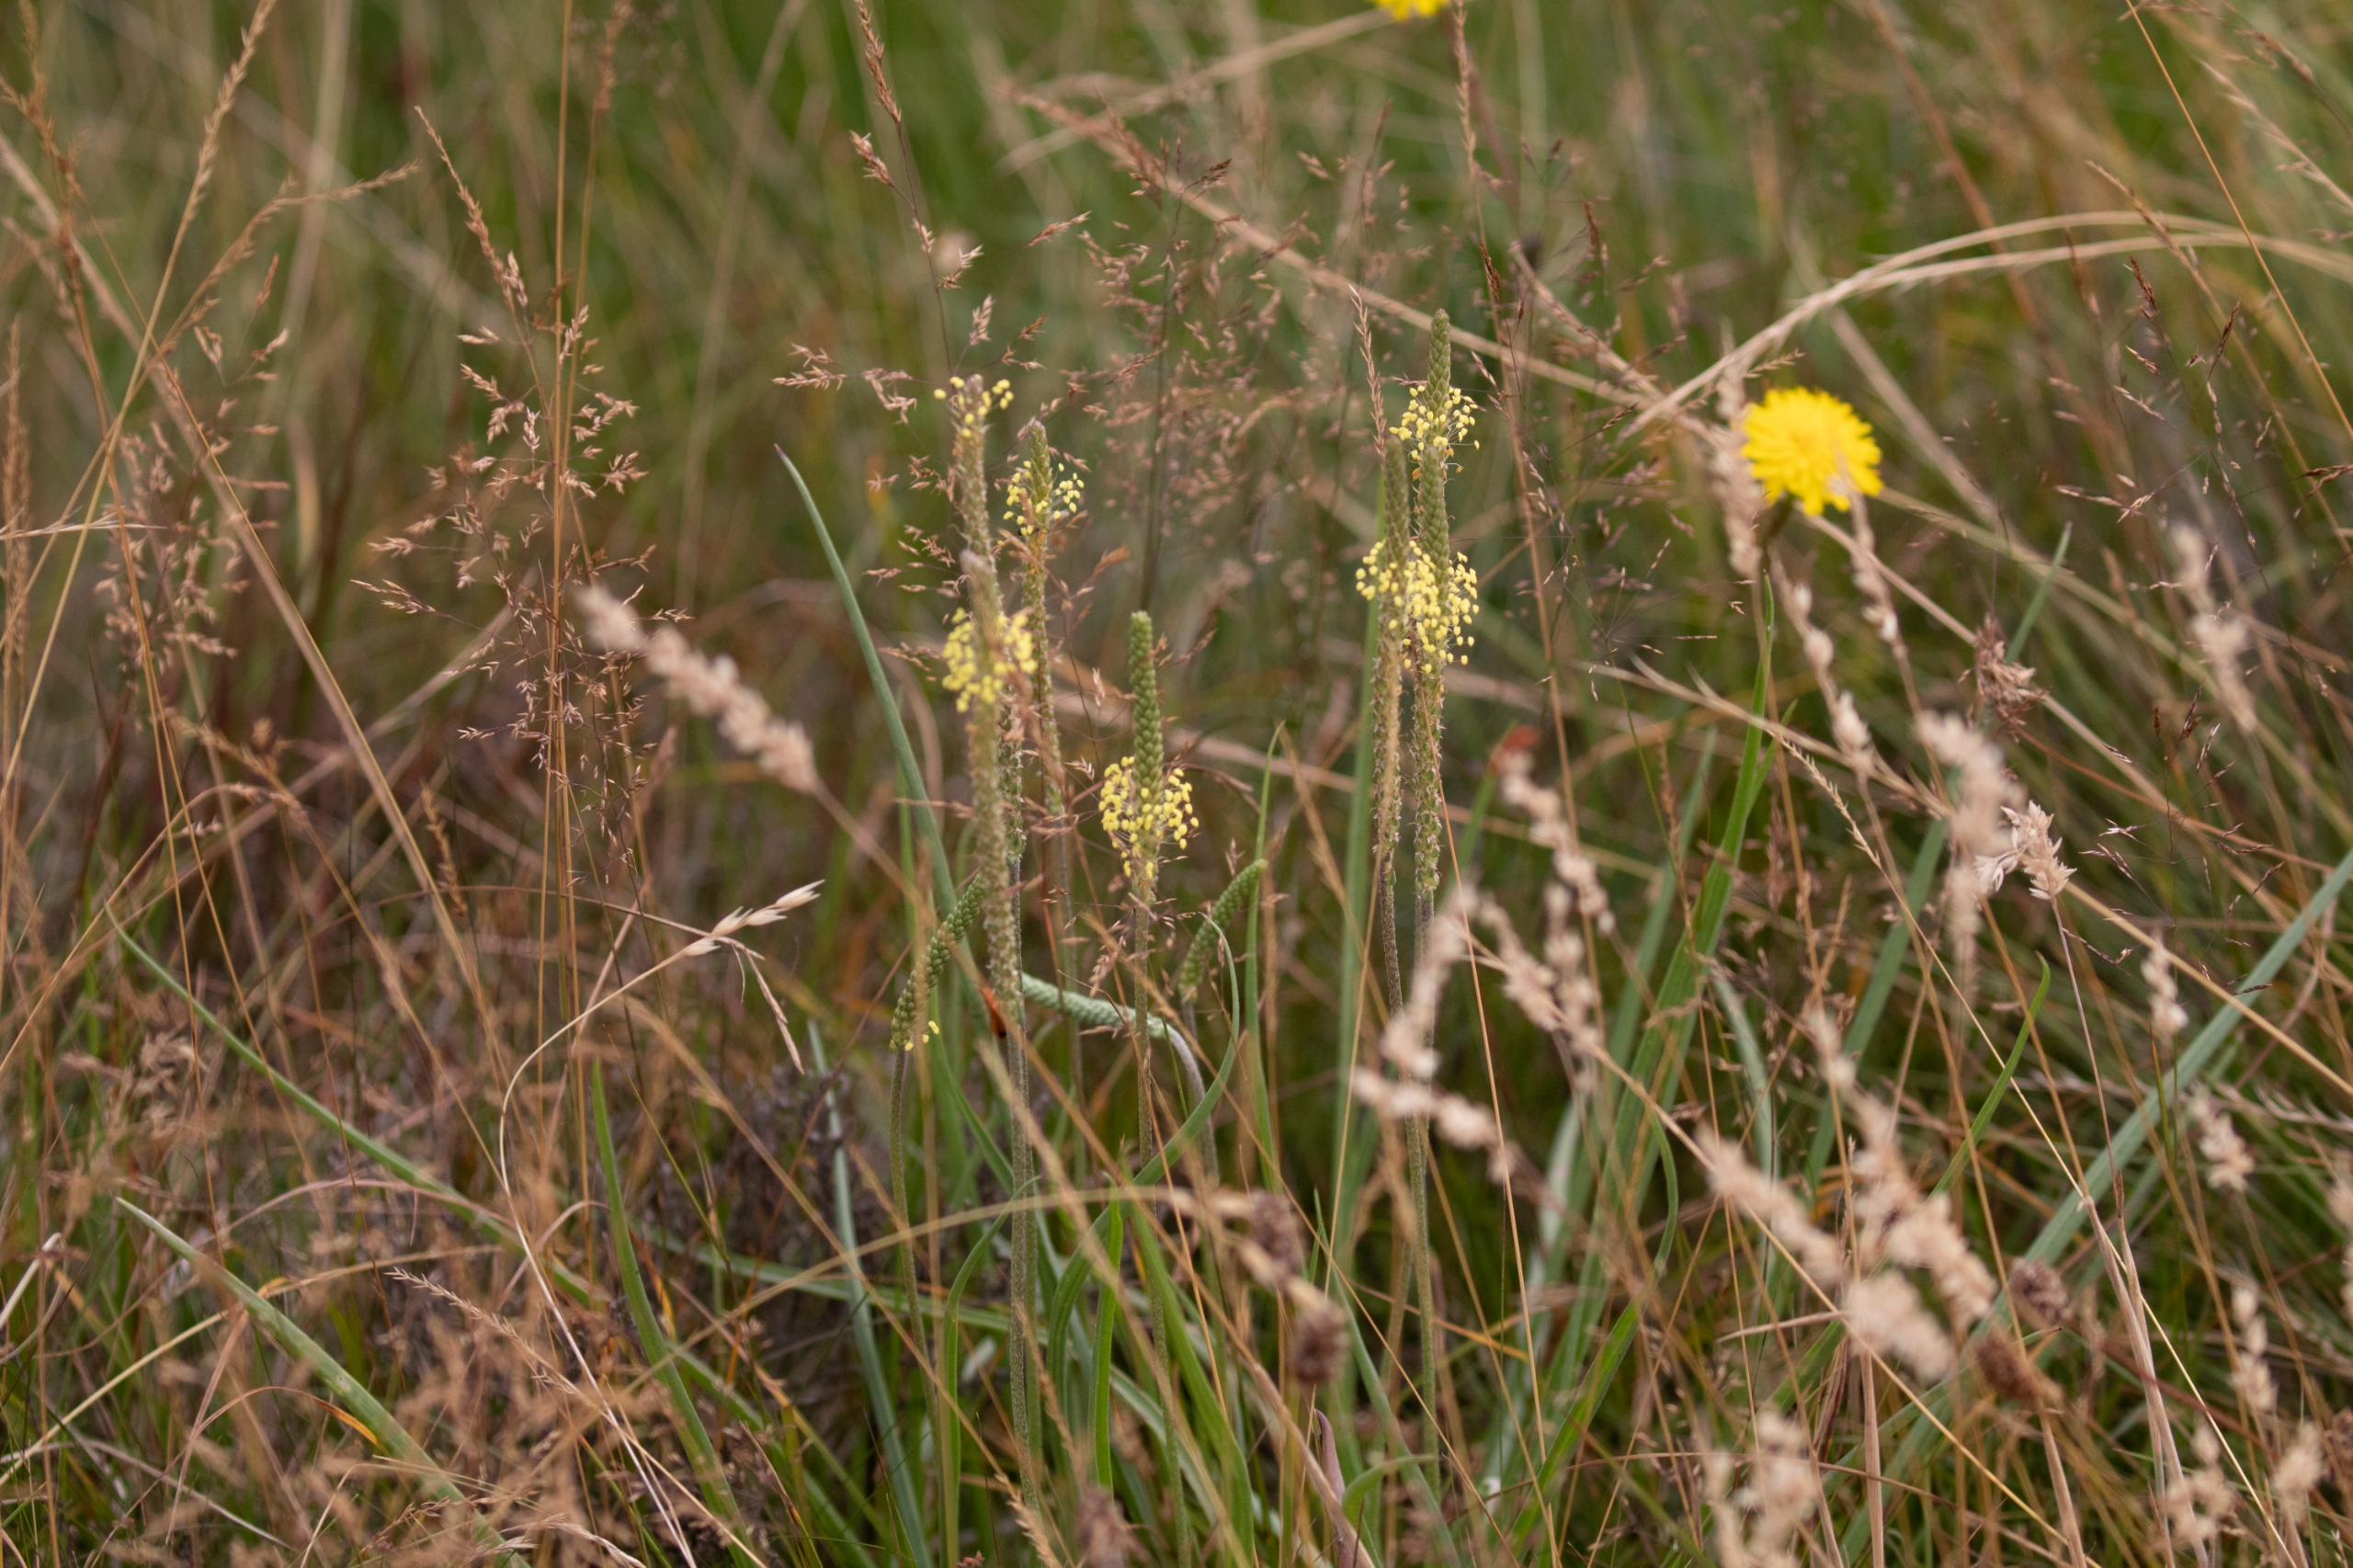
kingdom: Plantae
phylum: Tracheophyta
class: Magnoliopsida
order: Lamiales
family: Plantaginaceae
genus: Plantago
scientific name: Plantago maritima
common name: Strand-vejbred
